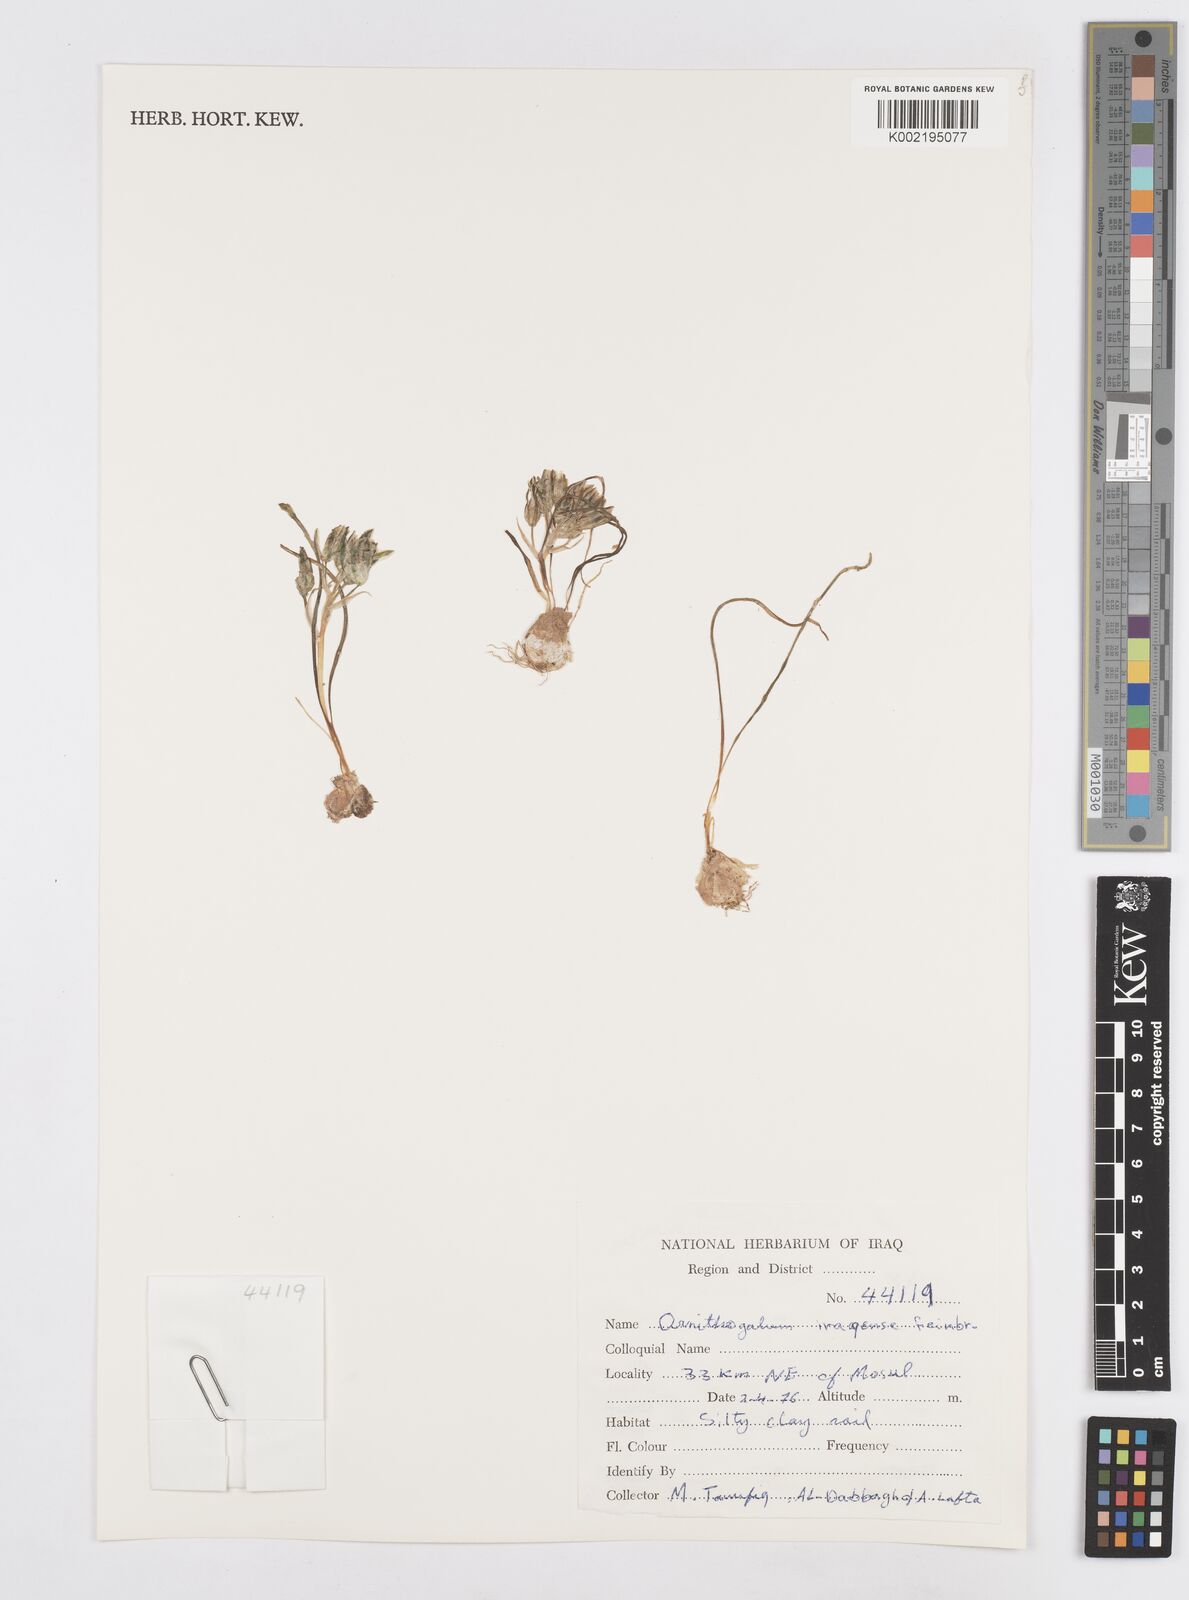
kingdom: Plantae
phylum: Tracheophyta
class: Liliopsida
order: Asparagales
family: Asparagaceae
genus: Ornithogalum
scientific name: Ornithogalum iraqense
